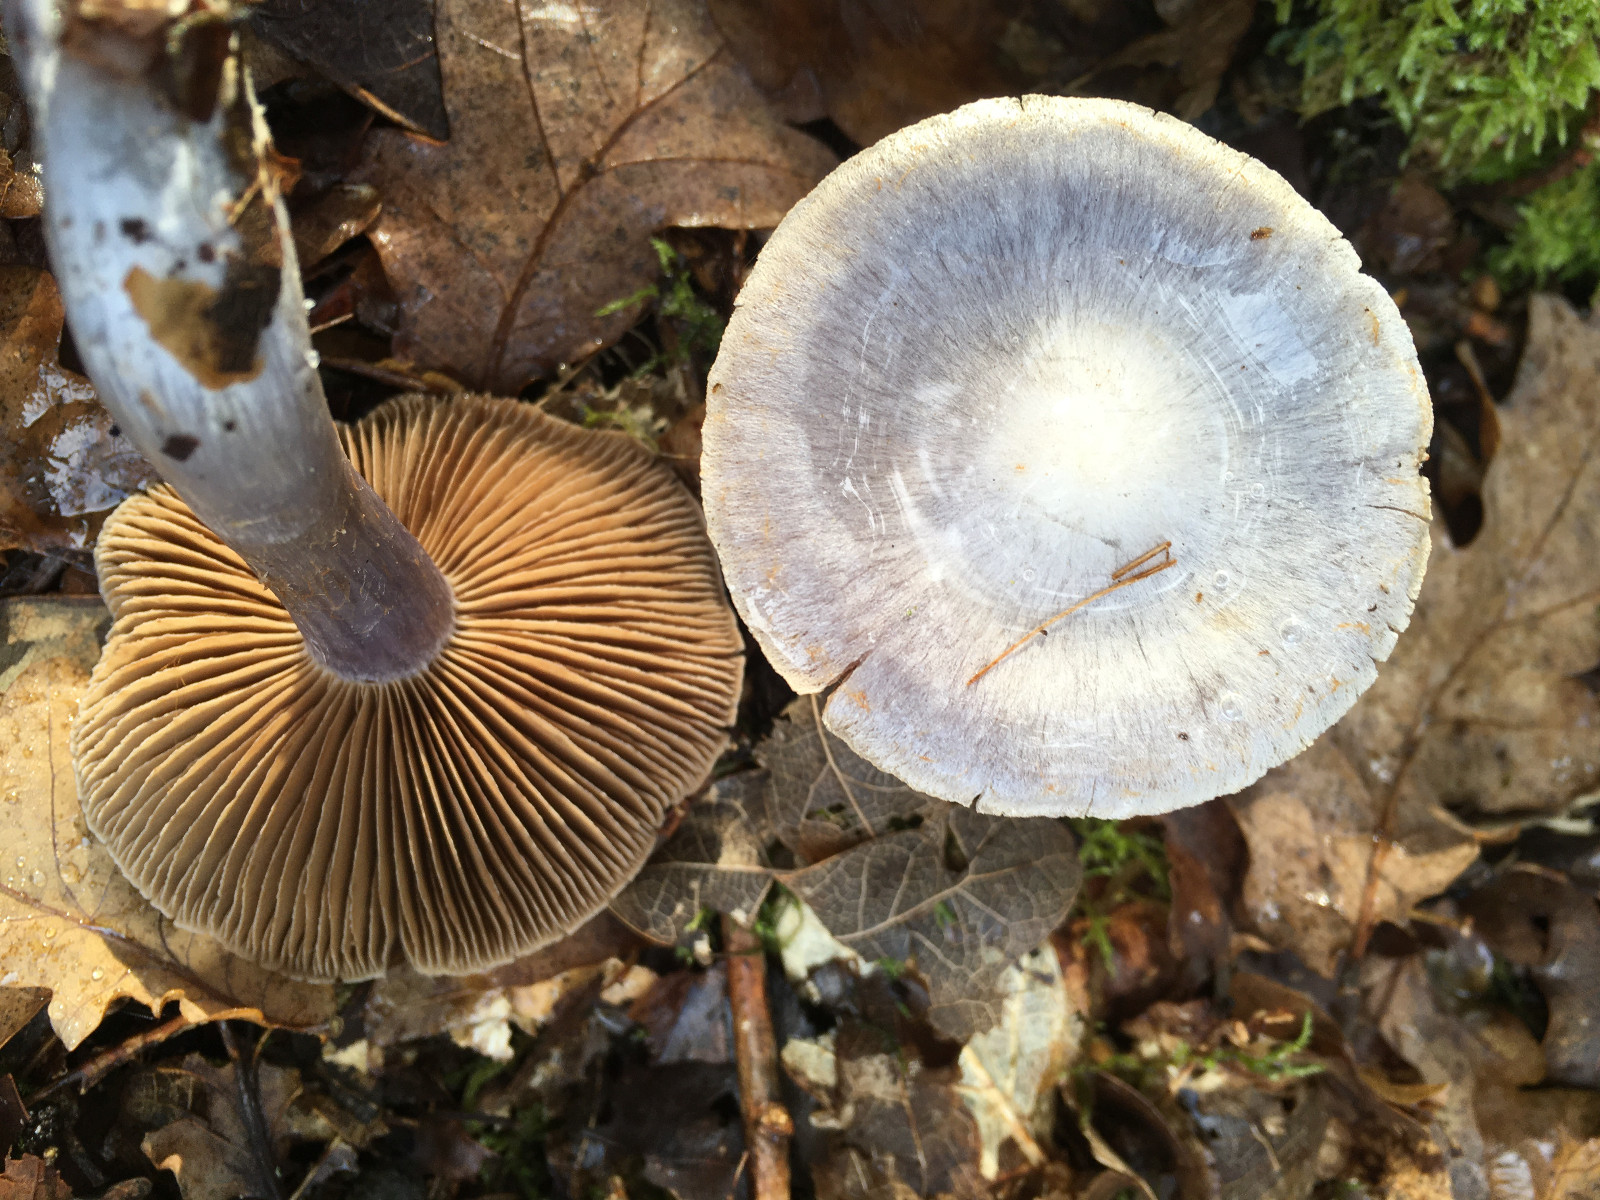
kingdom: Fungi
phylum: Basidiomycota
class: Agaricomycetes
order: Agaricales
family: Cortinariaceae
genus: Cortinarius
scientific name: Cortinarius alboviolaceus
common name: lysviolet slørhat
